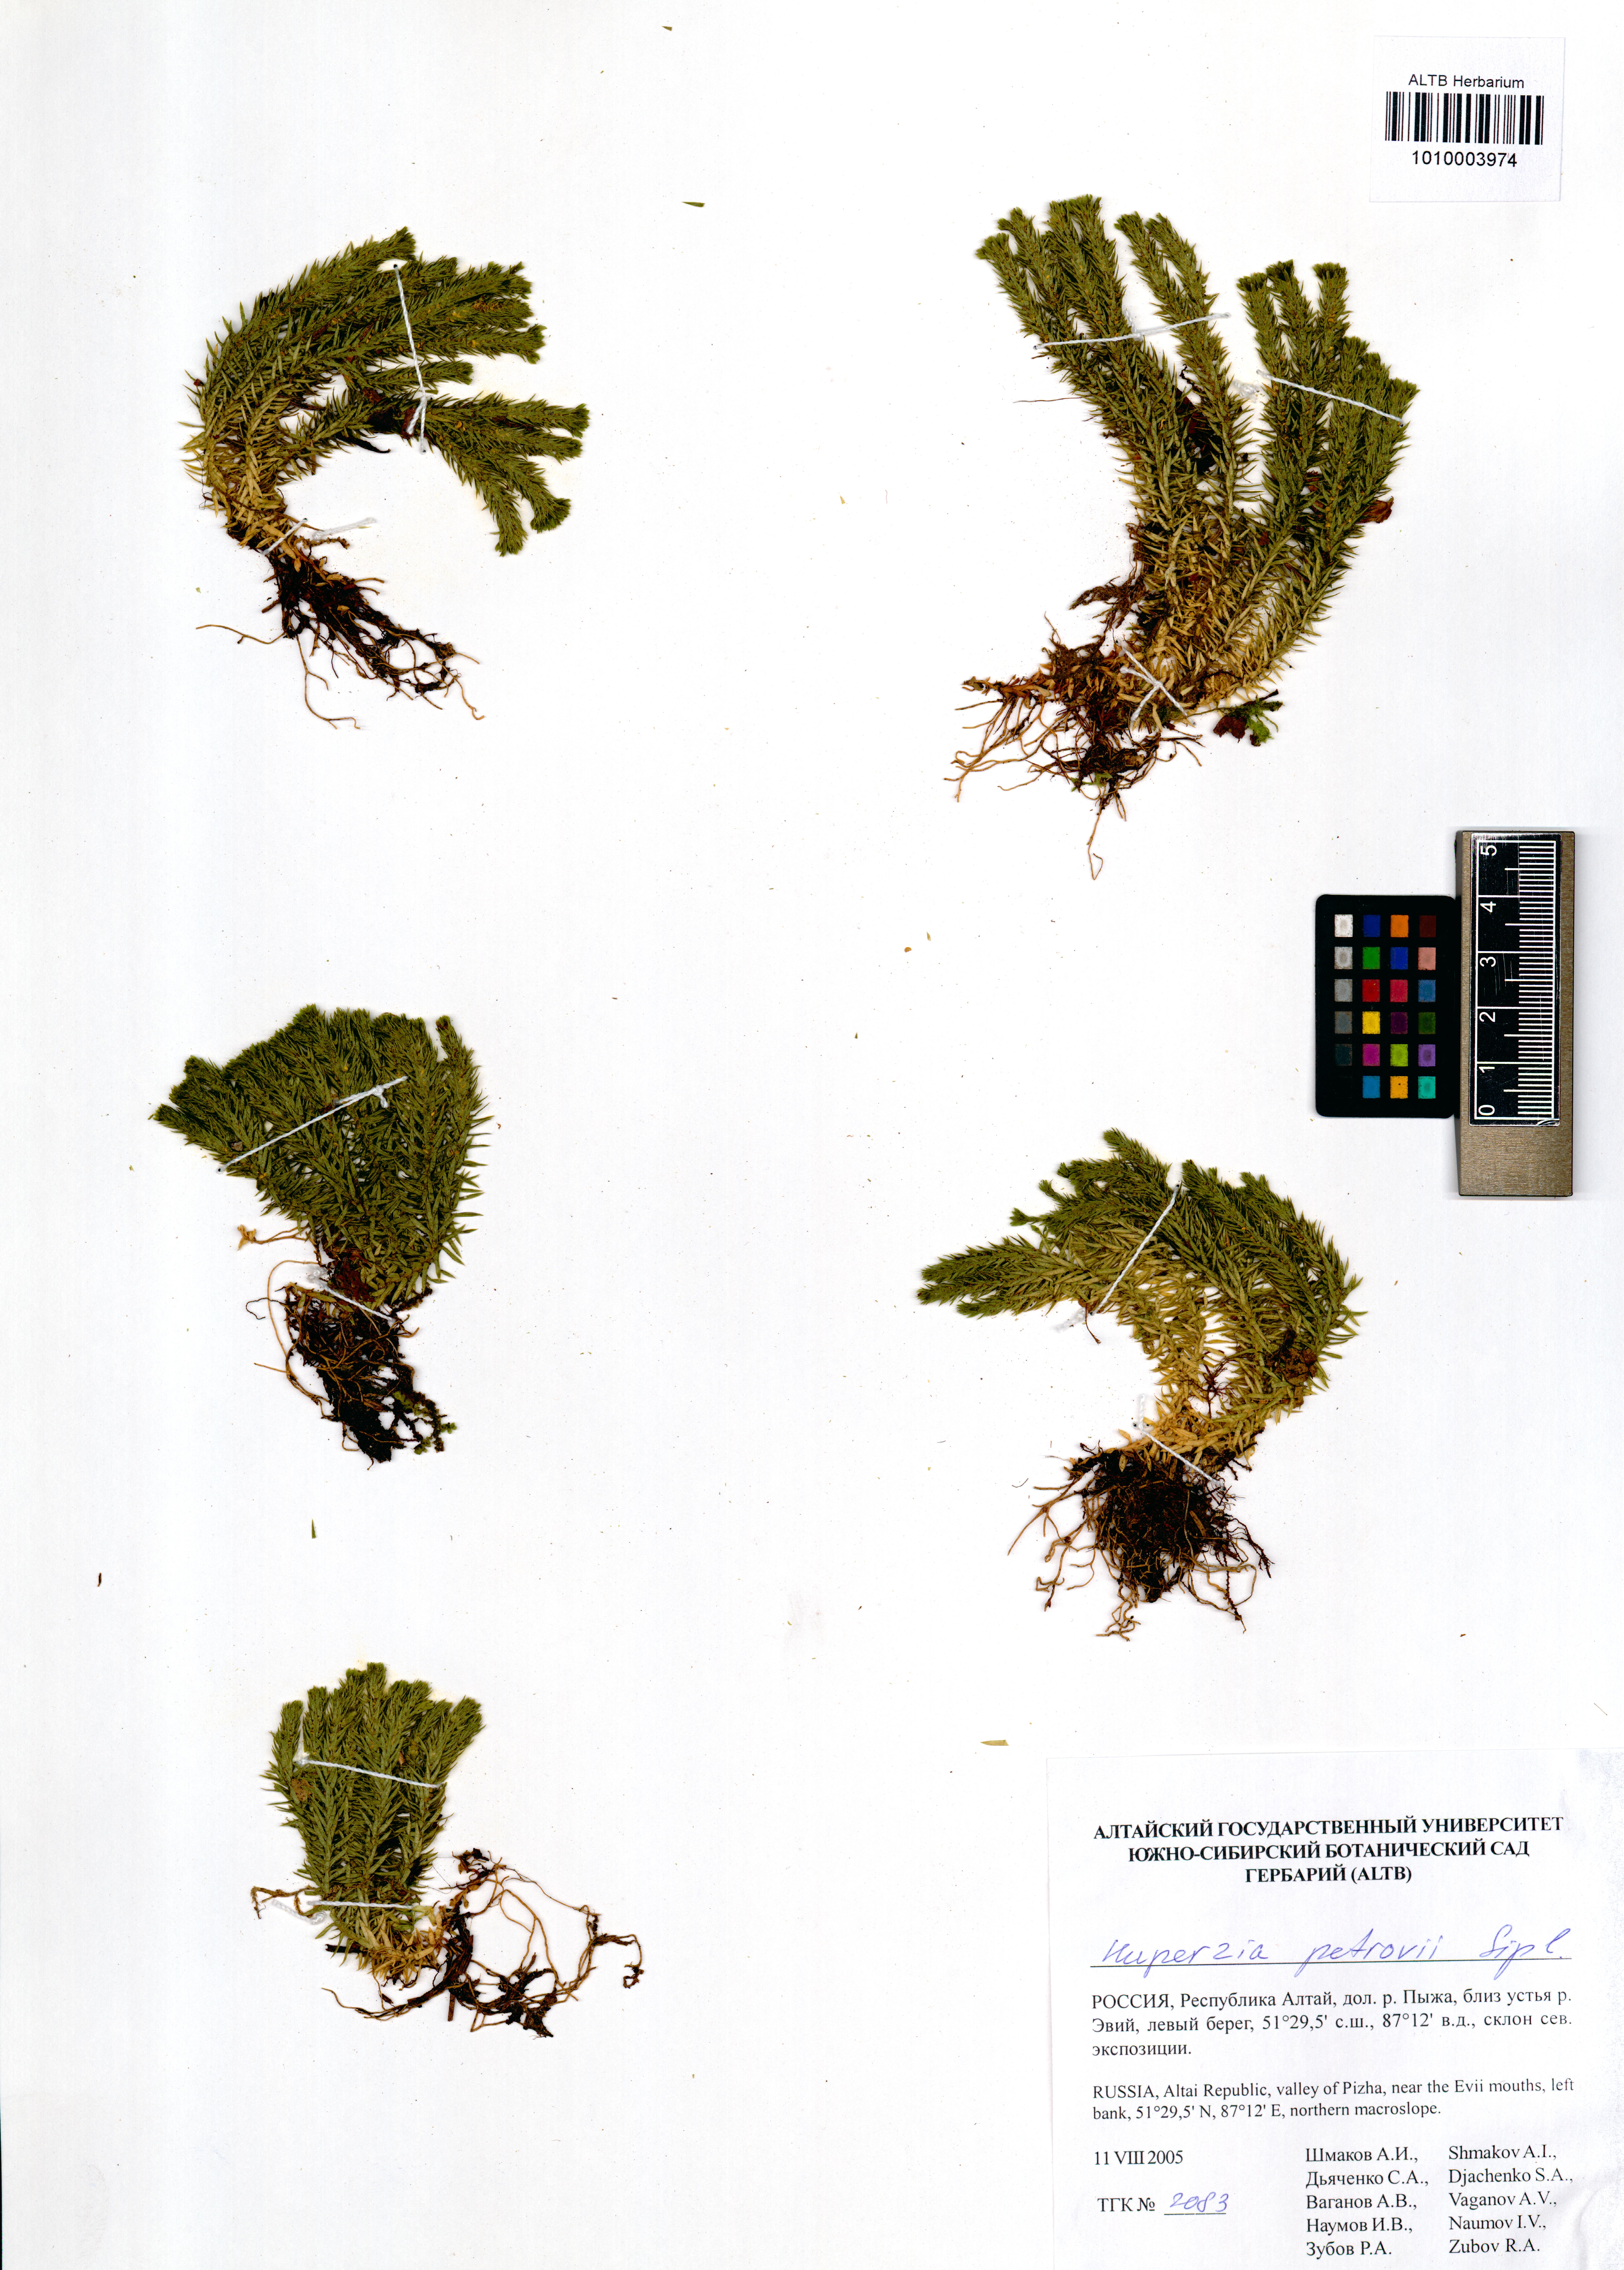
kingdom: Plantae
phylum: Tracheophyta
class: Lycopodiopsida
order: Lycopodiales
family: Lycopodiaceae
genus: Huperzia
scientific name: Huperzia selago
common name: Northern firmoss
